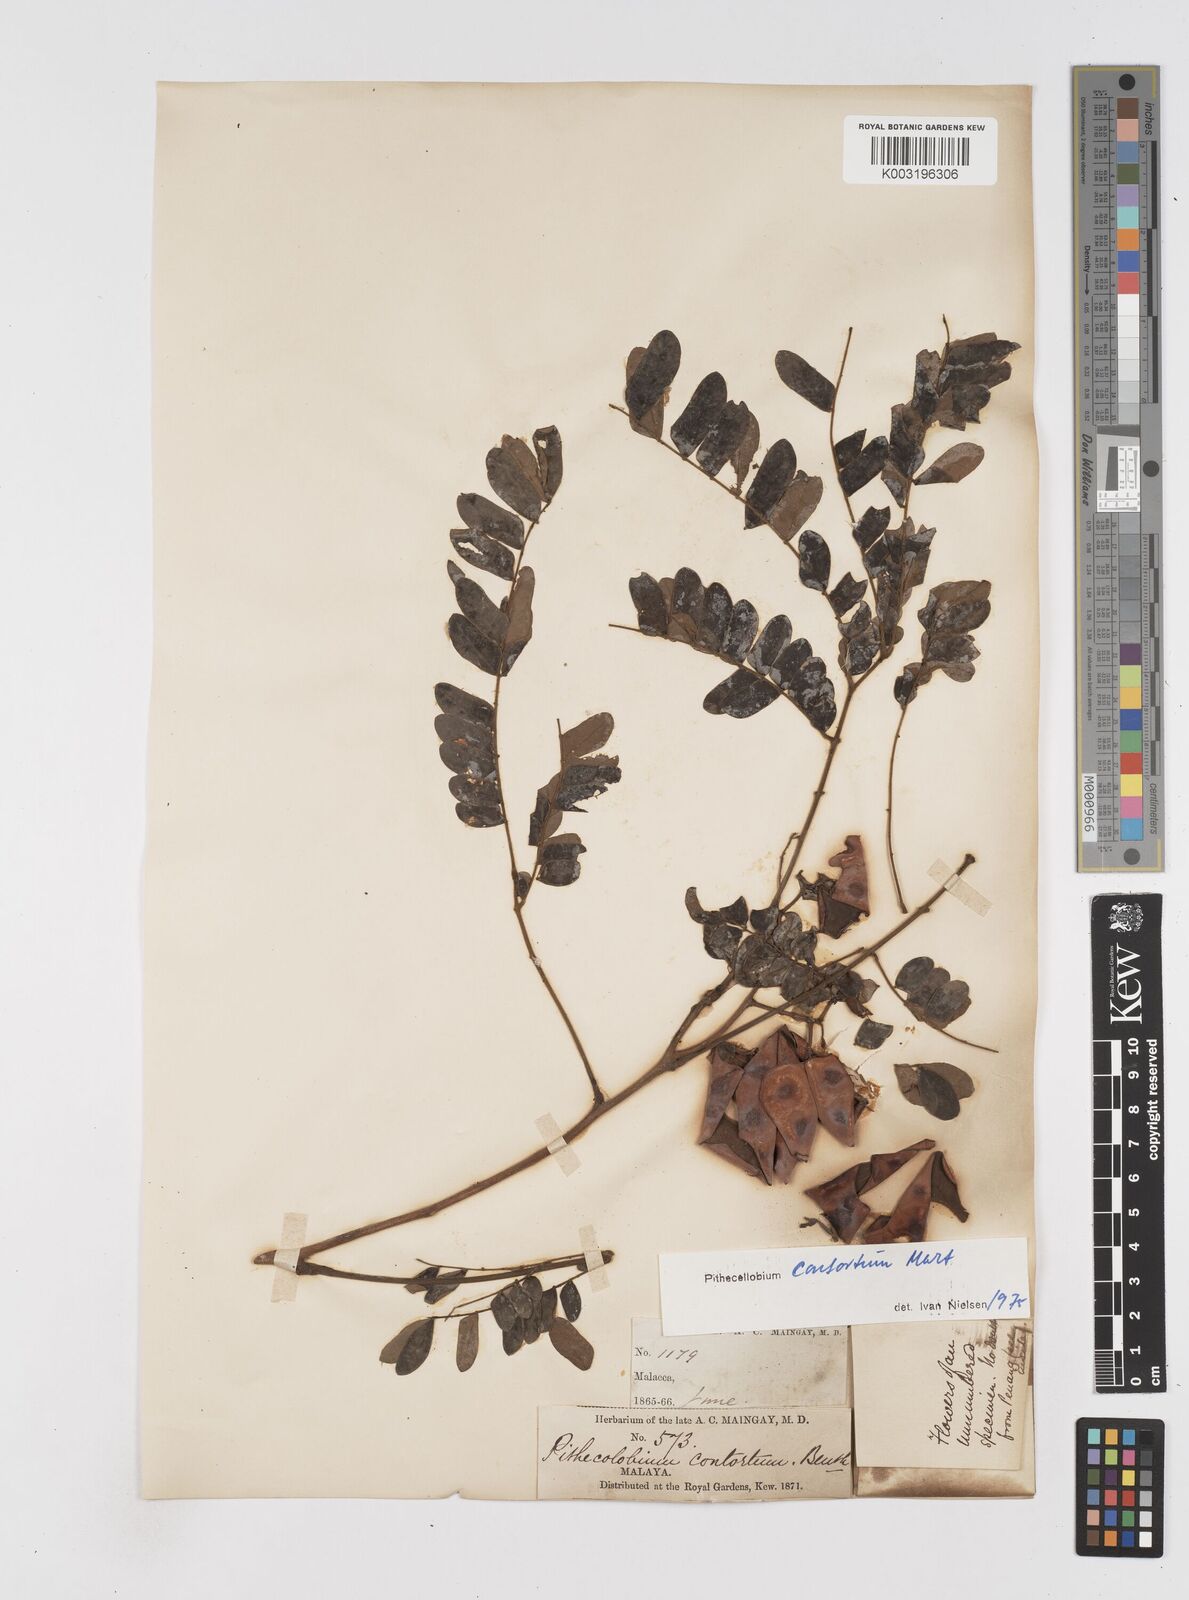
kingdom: Plantae
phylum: Tracheophyta
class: Magnoliopsida
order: Fabales
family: Fabaceae
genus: Archidendron
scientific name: Archidendron contortum
